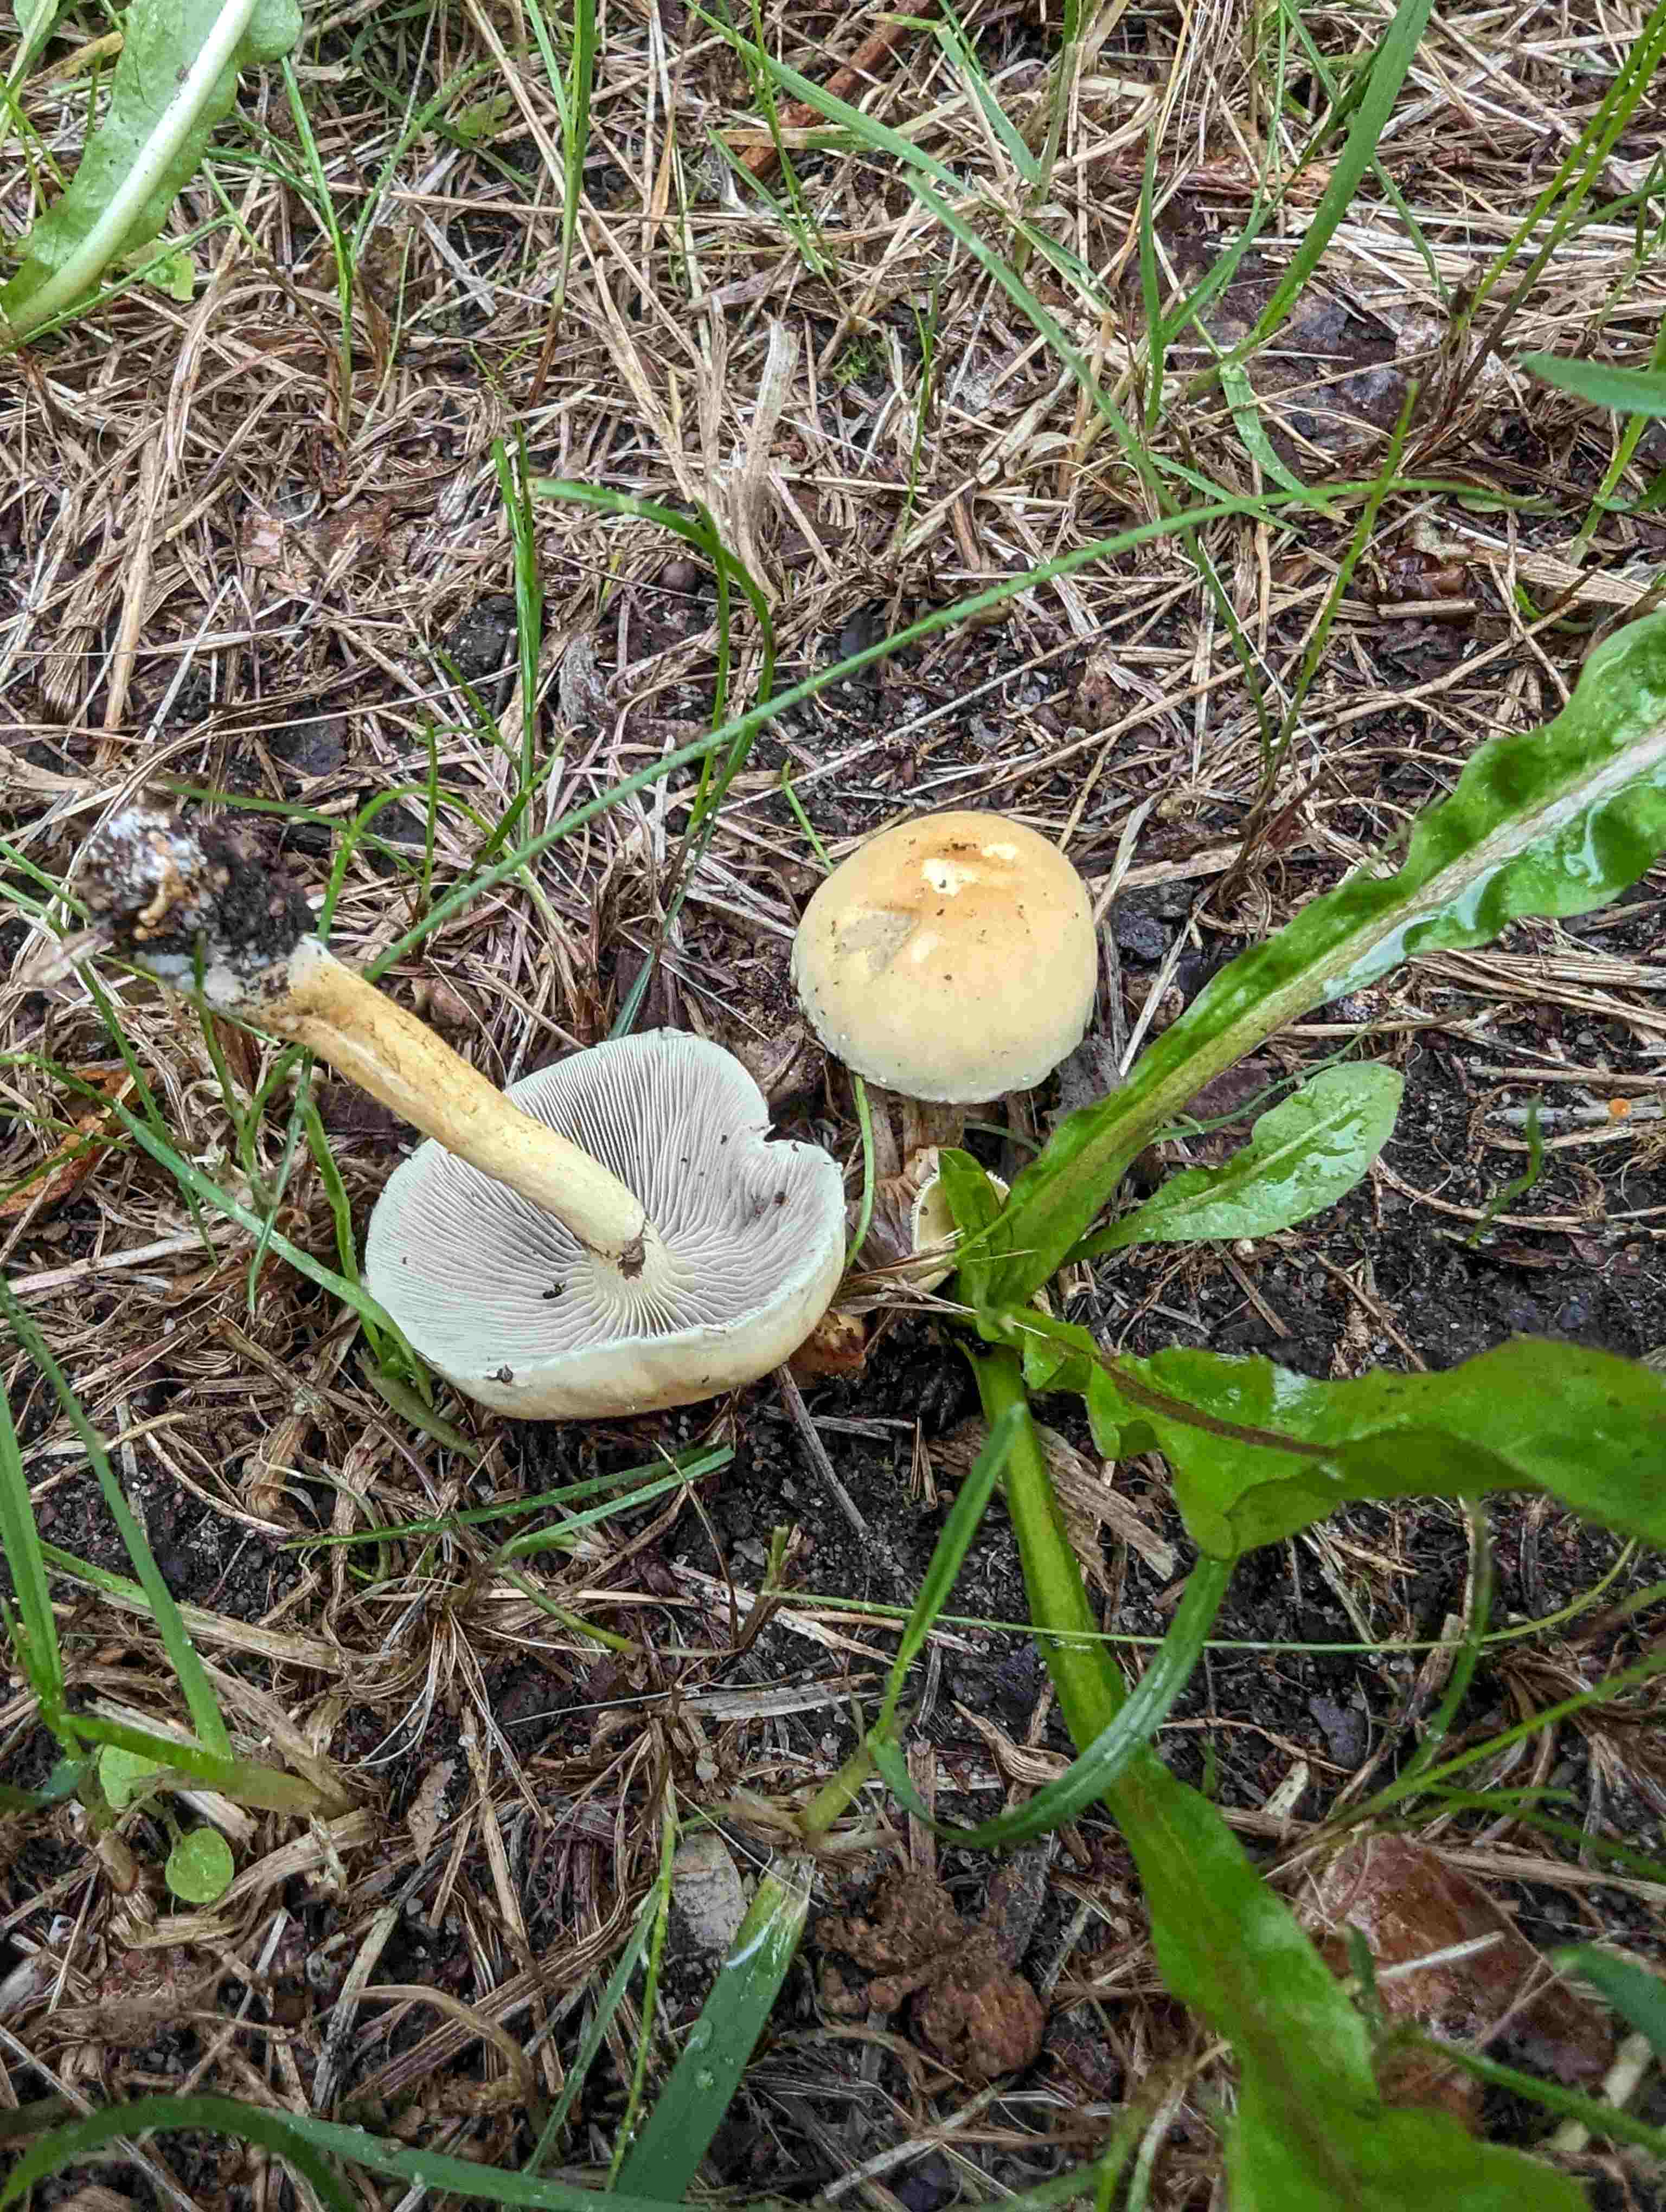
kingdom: Fungi
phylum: Basidiomycota
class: Agaricomycetes
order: Agaricales
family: Strophariaceae
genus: Hypholoma
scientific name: Hypholoma fasciculare
